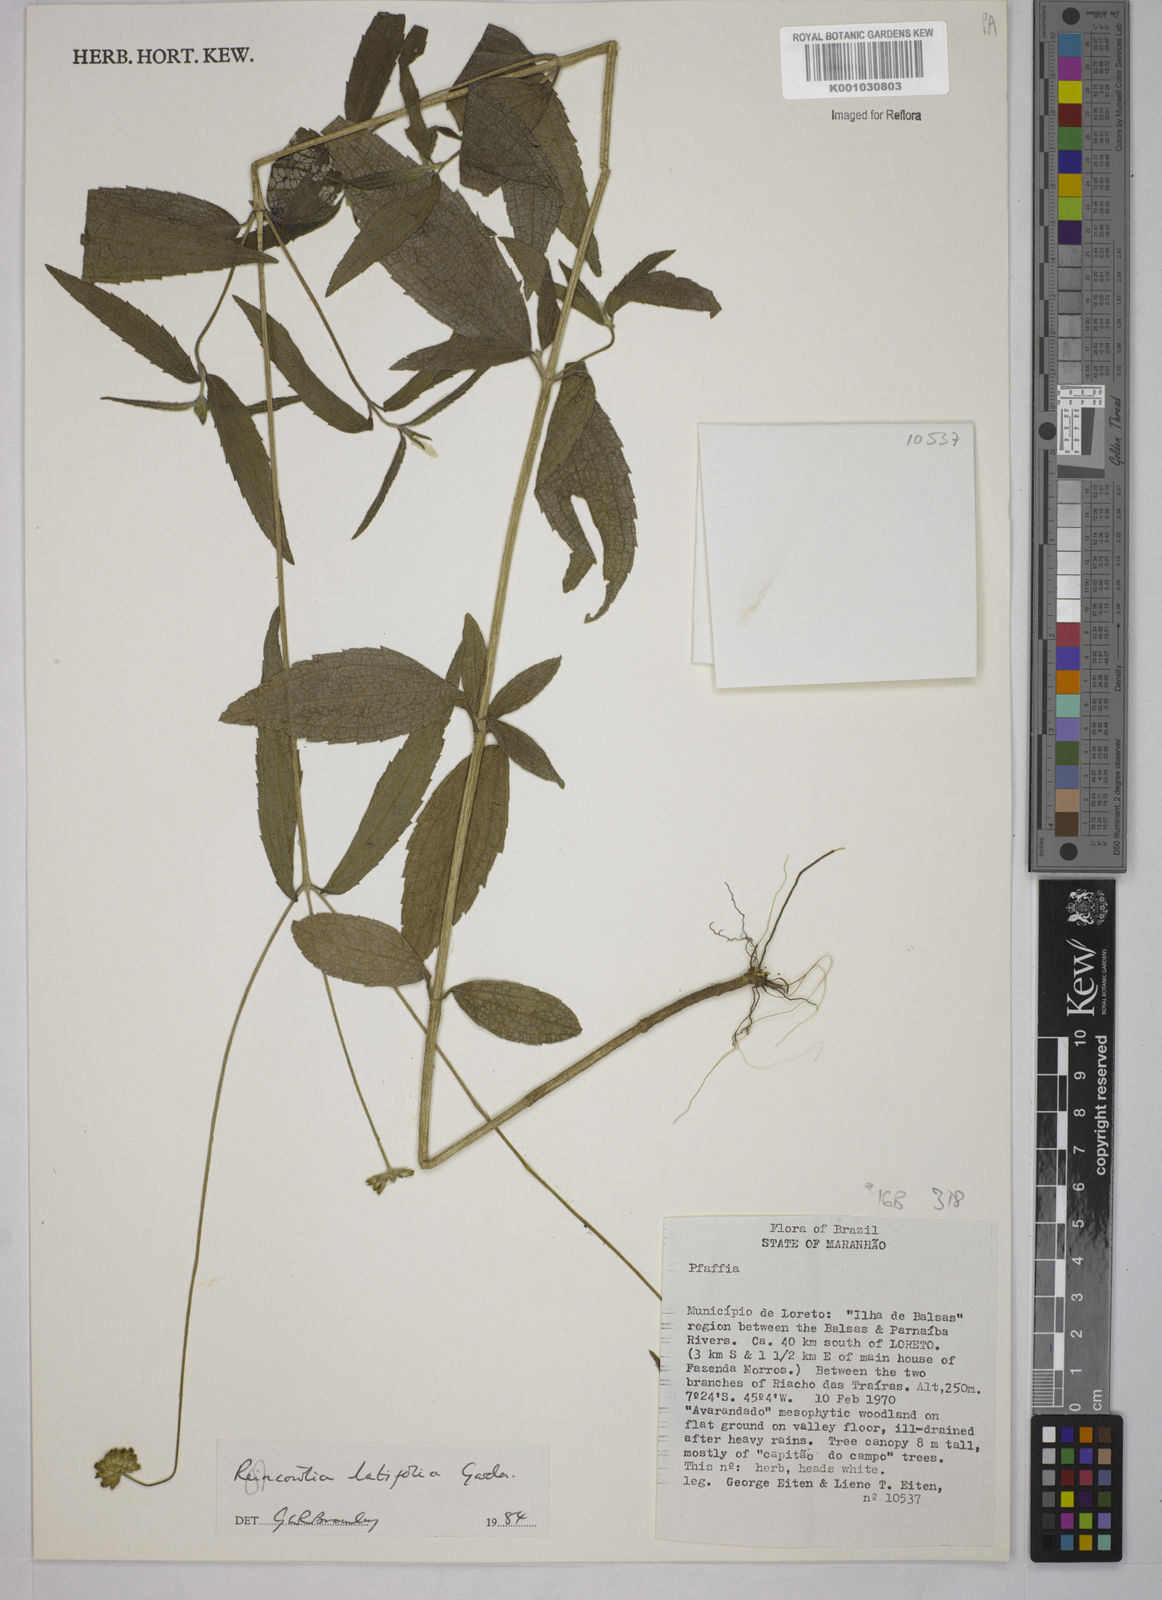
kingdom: Plantae
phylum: Tracheophyta
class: Magnoliopsida
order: Asterales
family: Asteraceae
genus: Riencourtia
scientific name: Riencourtia latifolia
